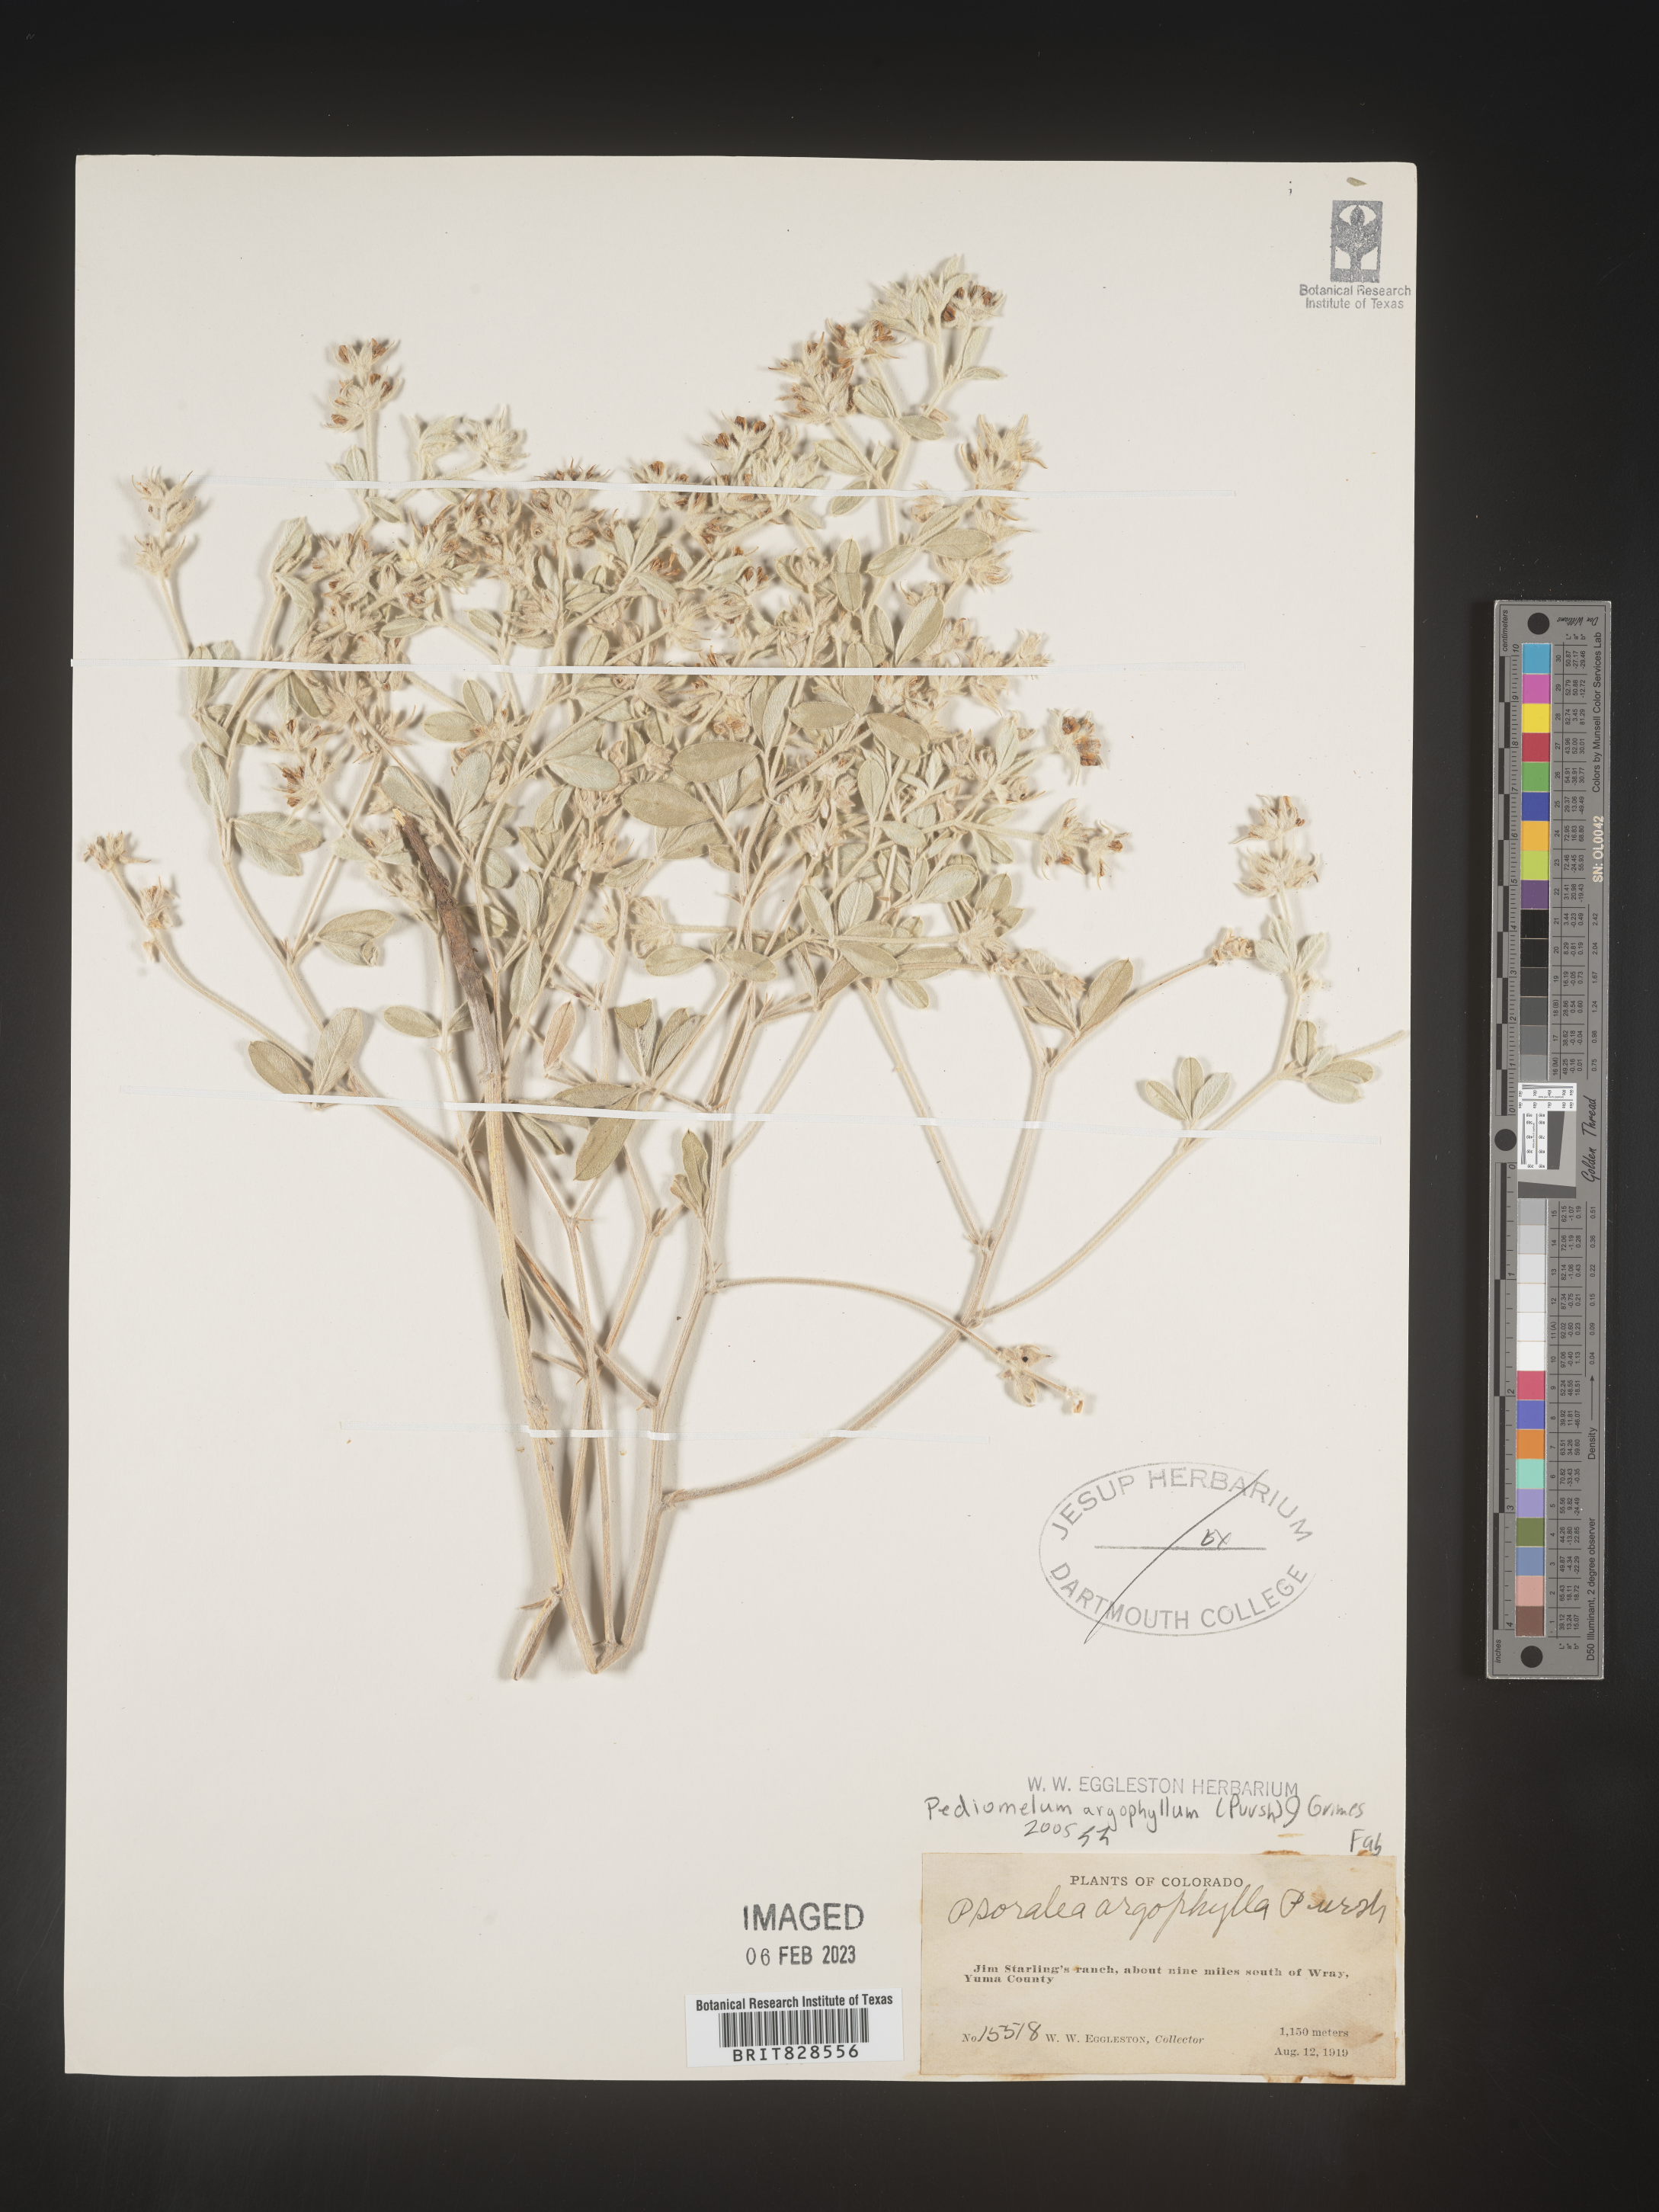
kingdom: Plantae
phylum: Tracheophyta
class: Magnoliopsida
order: Fabales
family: Fabaceae
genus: Pediomelum
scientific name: Pediomelum
